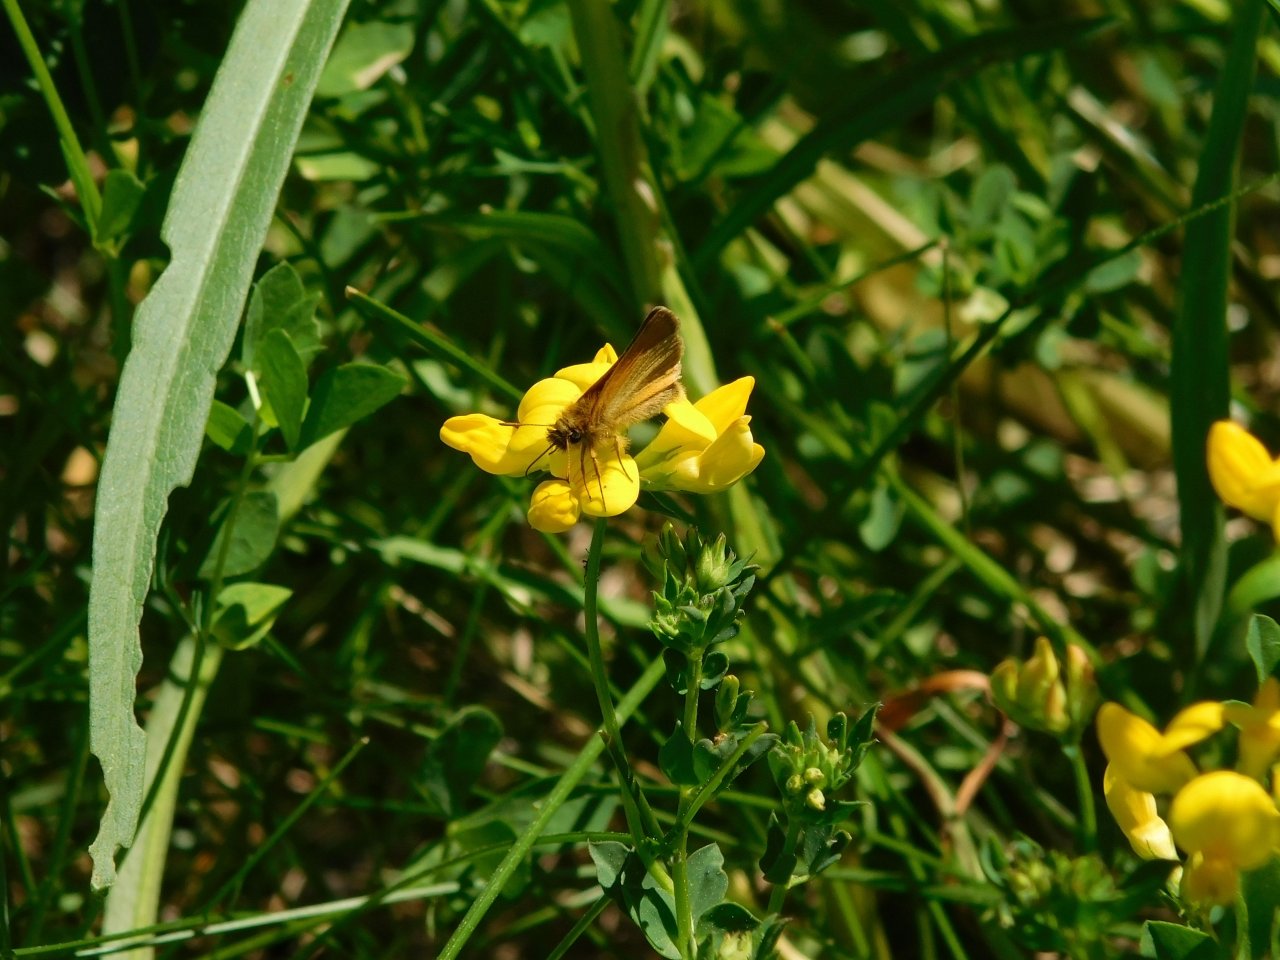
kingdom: Animalia
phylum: Arthropoda
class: Insecta
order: Lepidoptera
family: Hesperiidae
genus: Thymelicus
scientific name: Thymelicus lineola
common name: European Skipper
